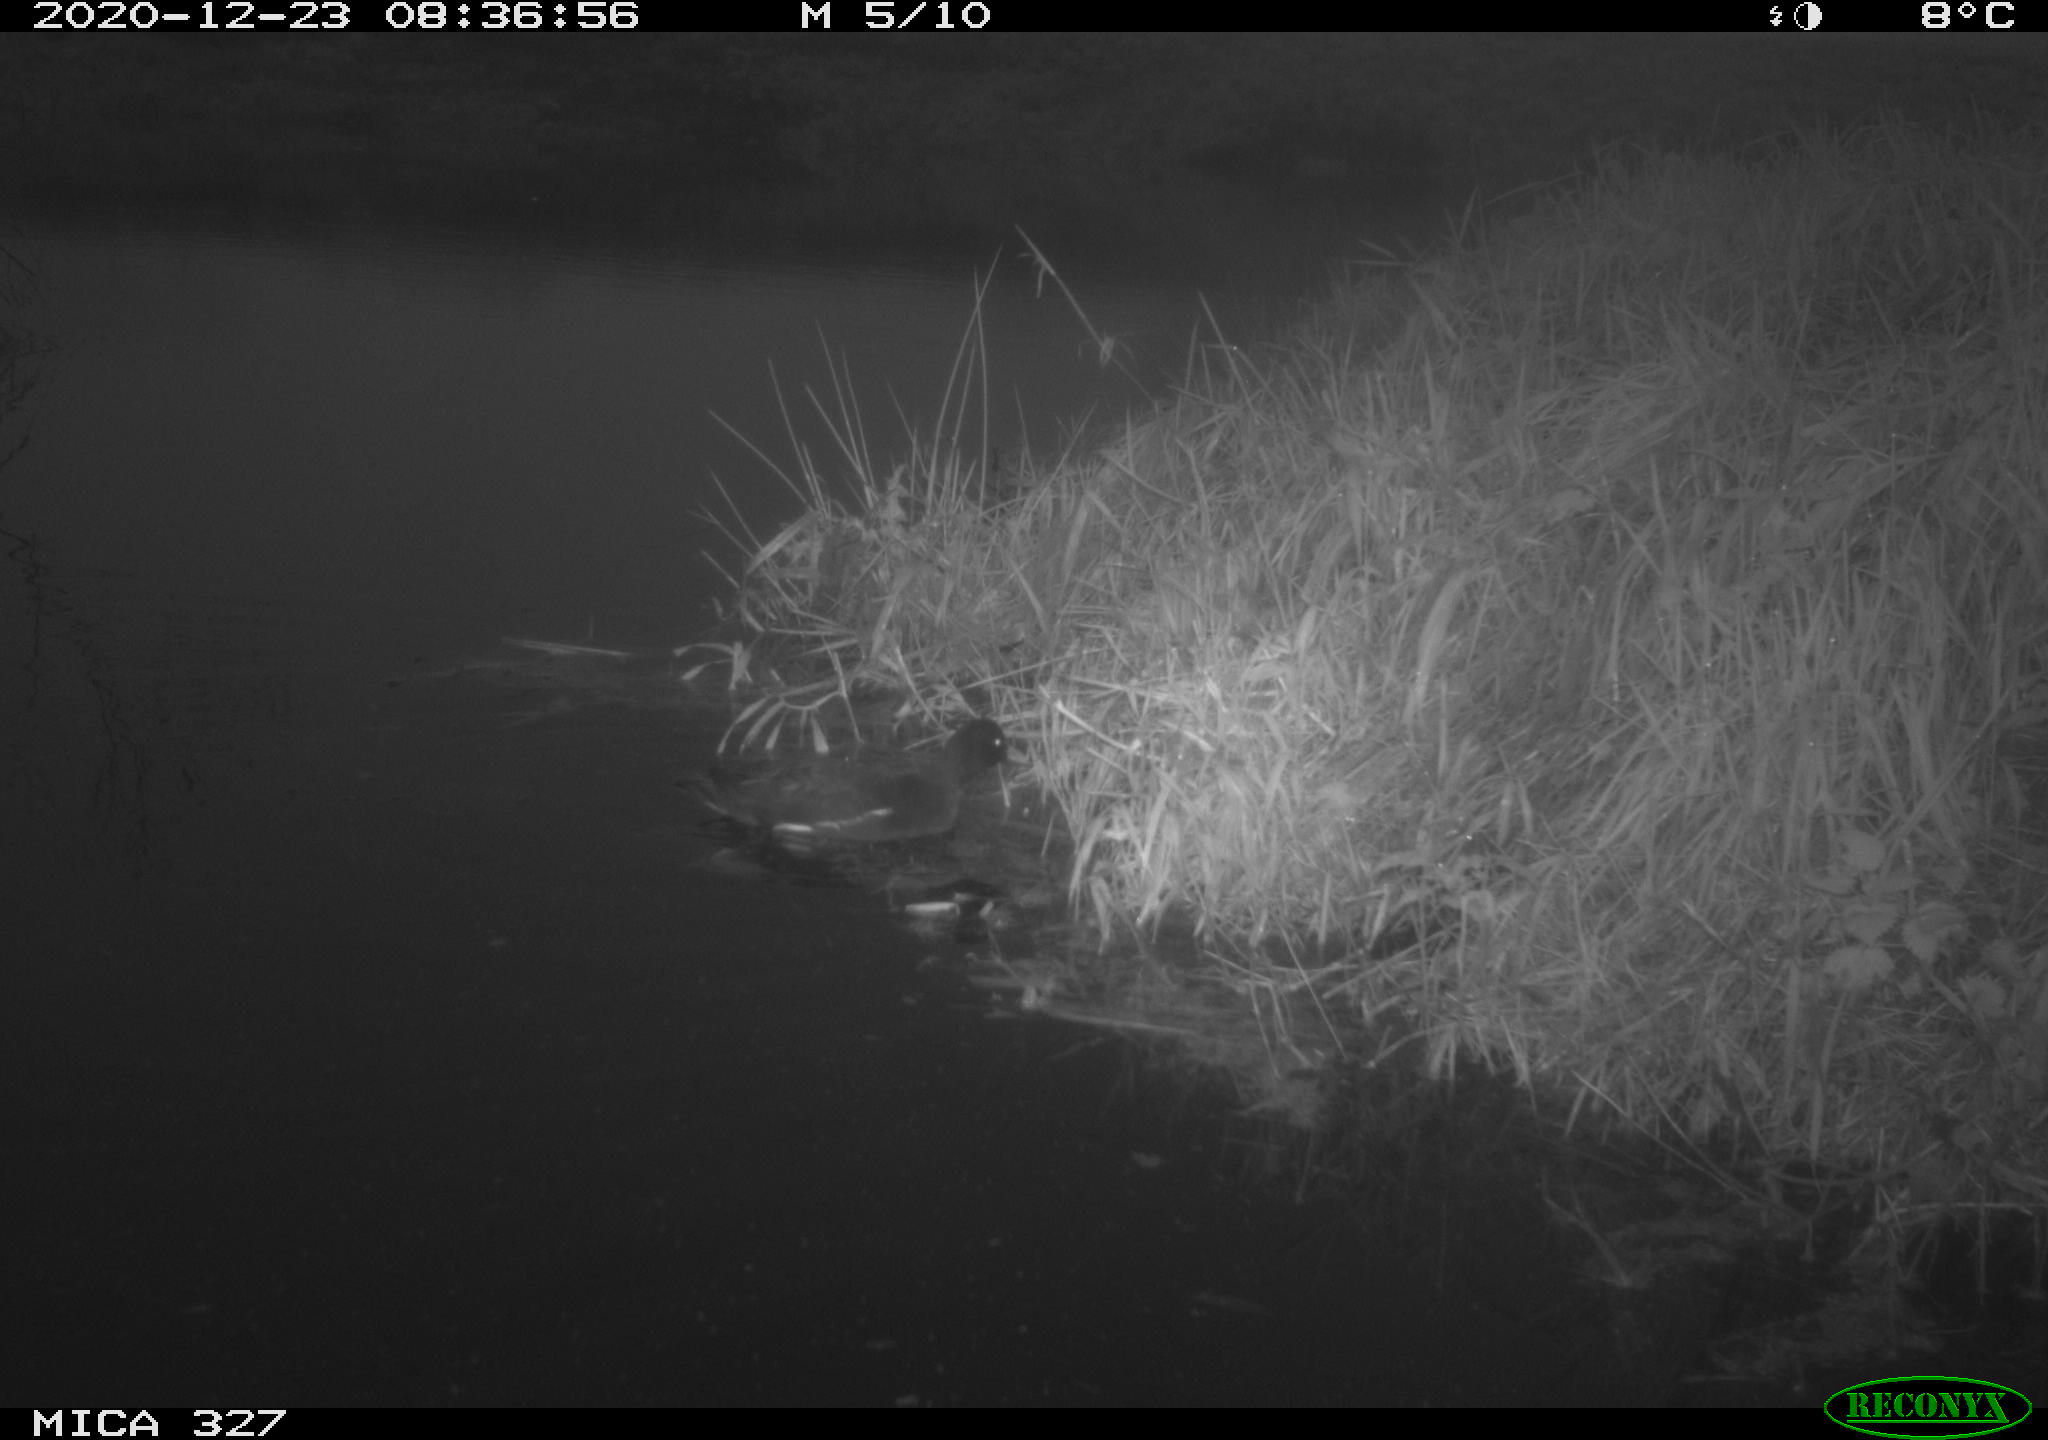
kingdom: Animalia
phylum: Chordata
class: Aves
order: Gruiformes
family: Rallidae
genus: Gallinula
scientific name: Gallinula chloropus
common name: Common moorhen
